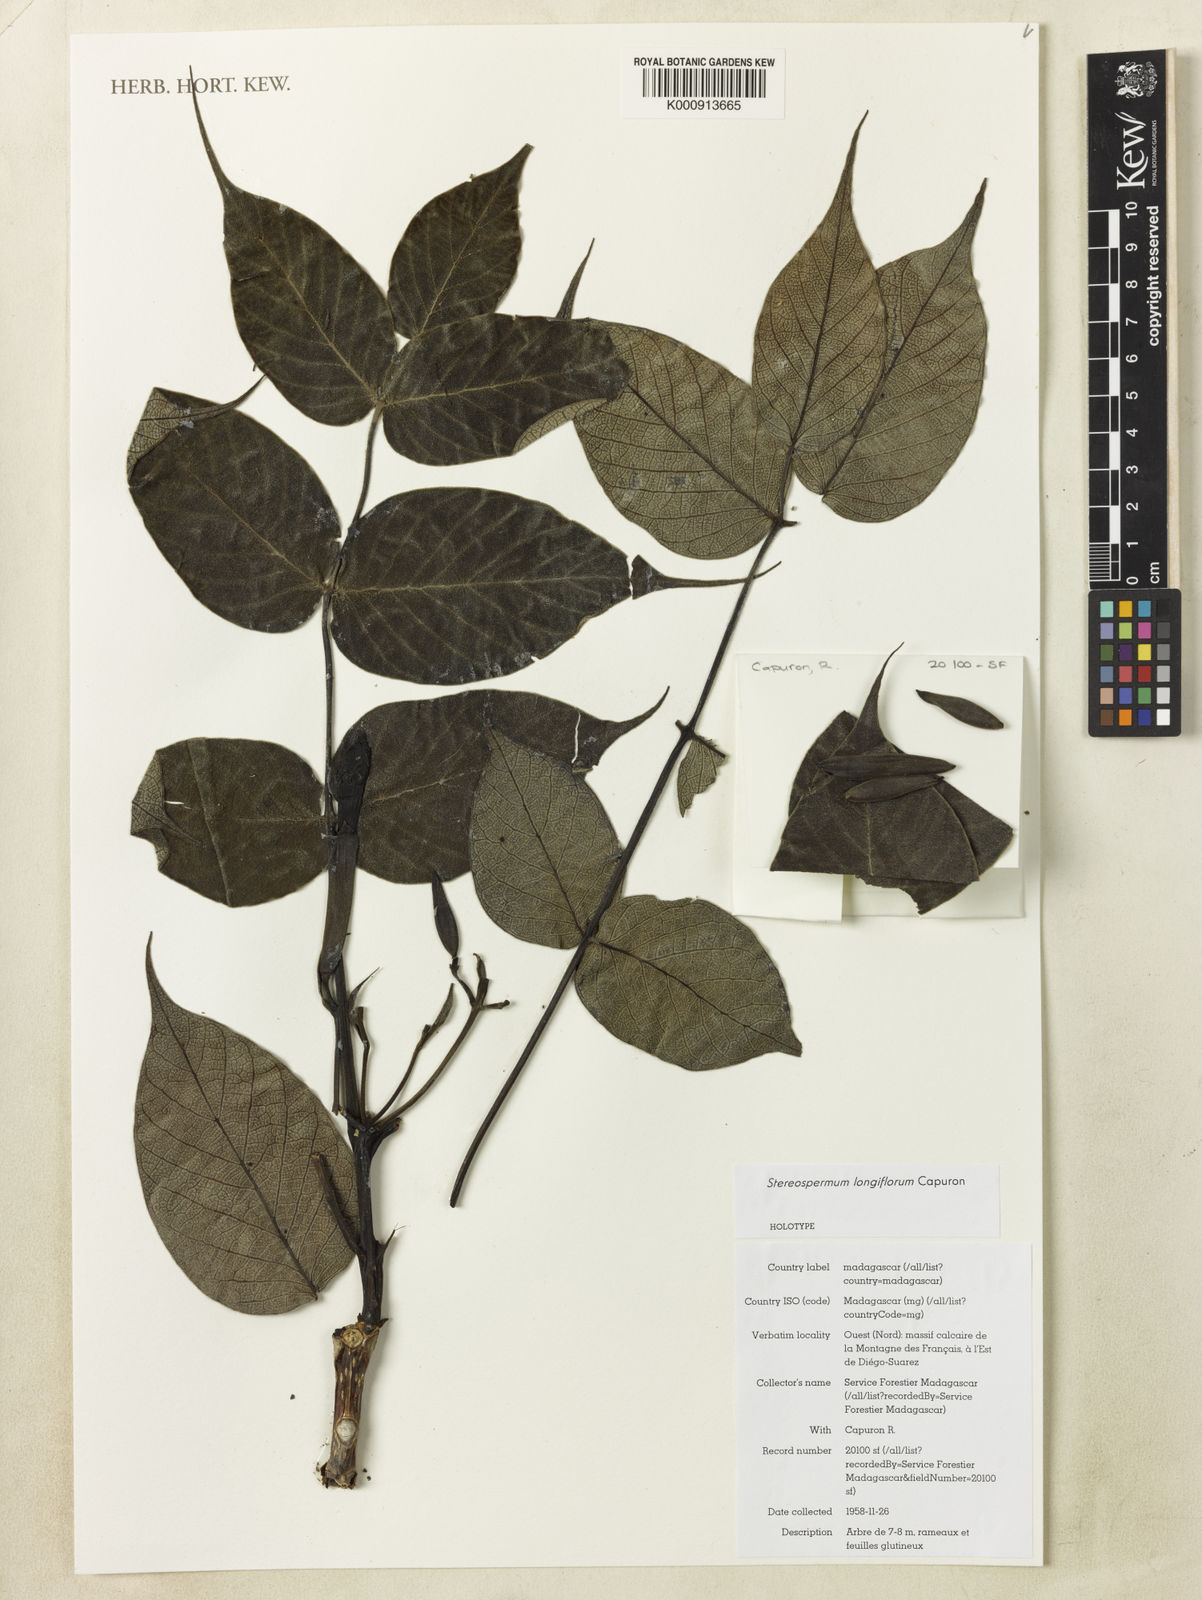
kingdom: Plantae
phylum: Tracheophyta
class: Magnoliopsida
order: Lamiales
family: Bignoniaceae
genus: Stereospermum
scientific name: Stereospermum longiflorum
